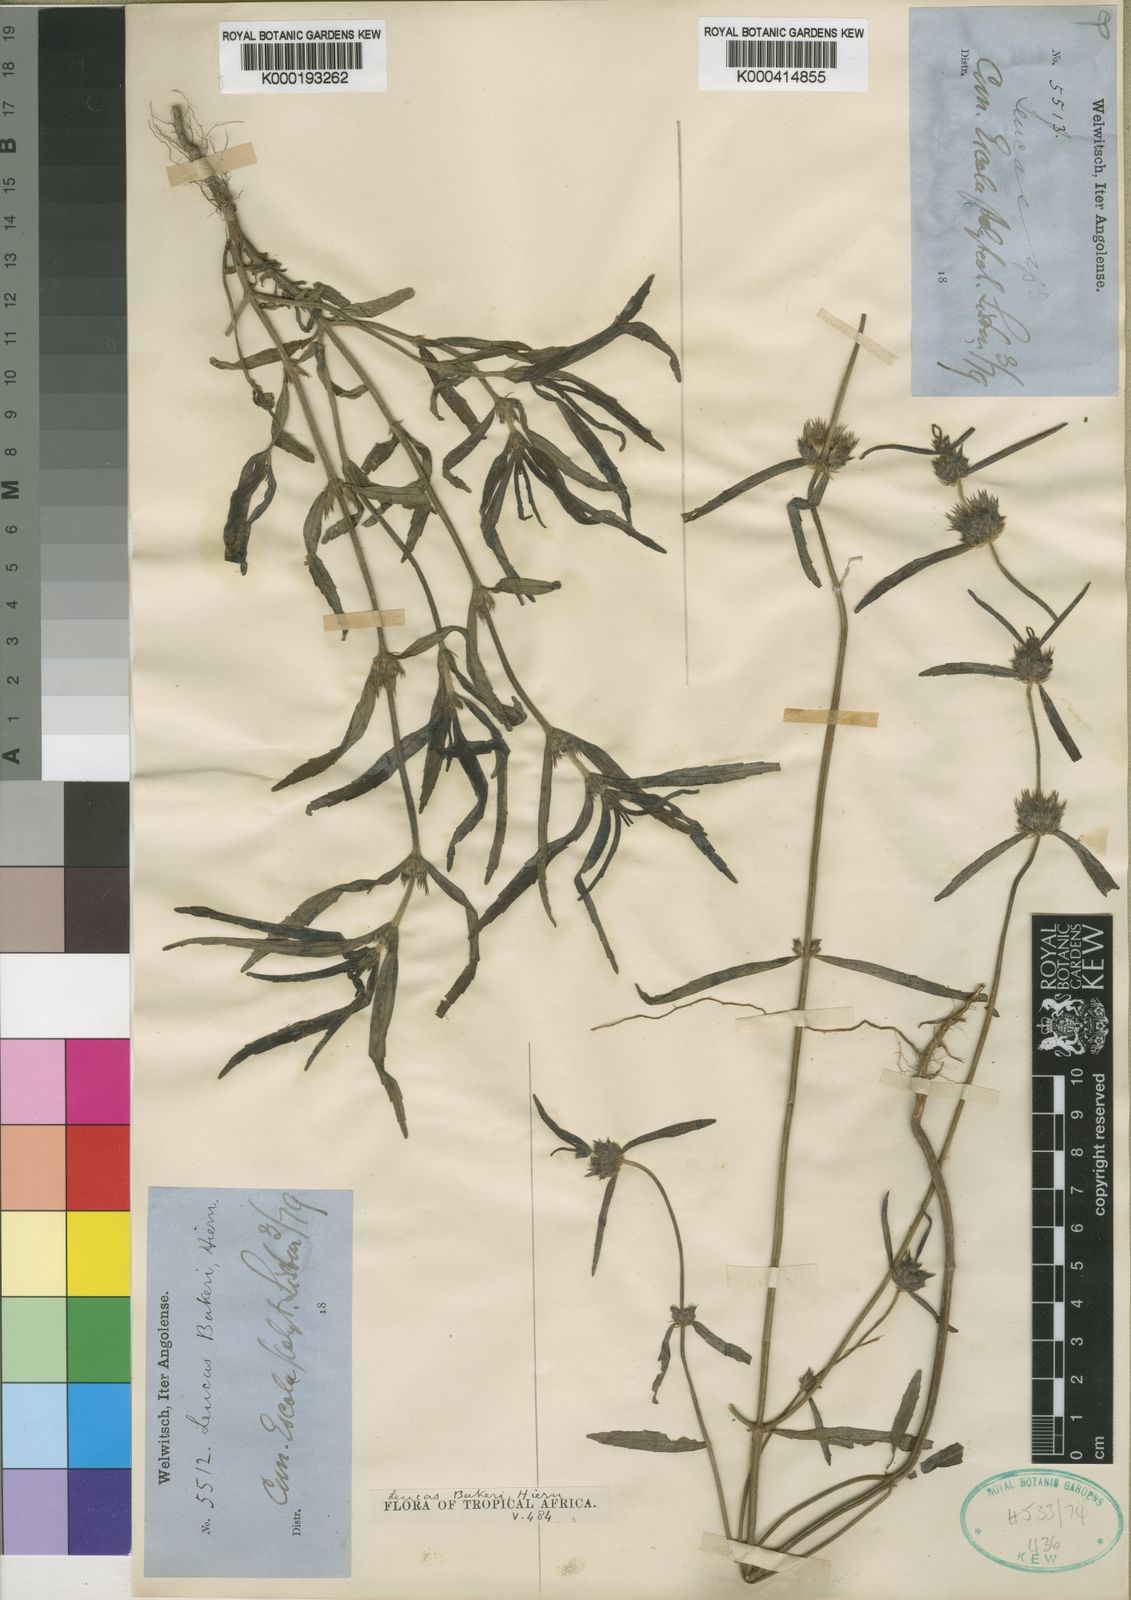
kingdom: Plantae
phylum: Tracheophyta
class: Magnoliopsida
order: Lamiales
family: Lamiaceae
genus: Leucas
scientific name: Leucas bakeri
